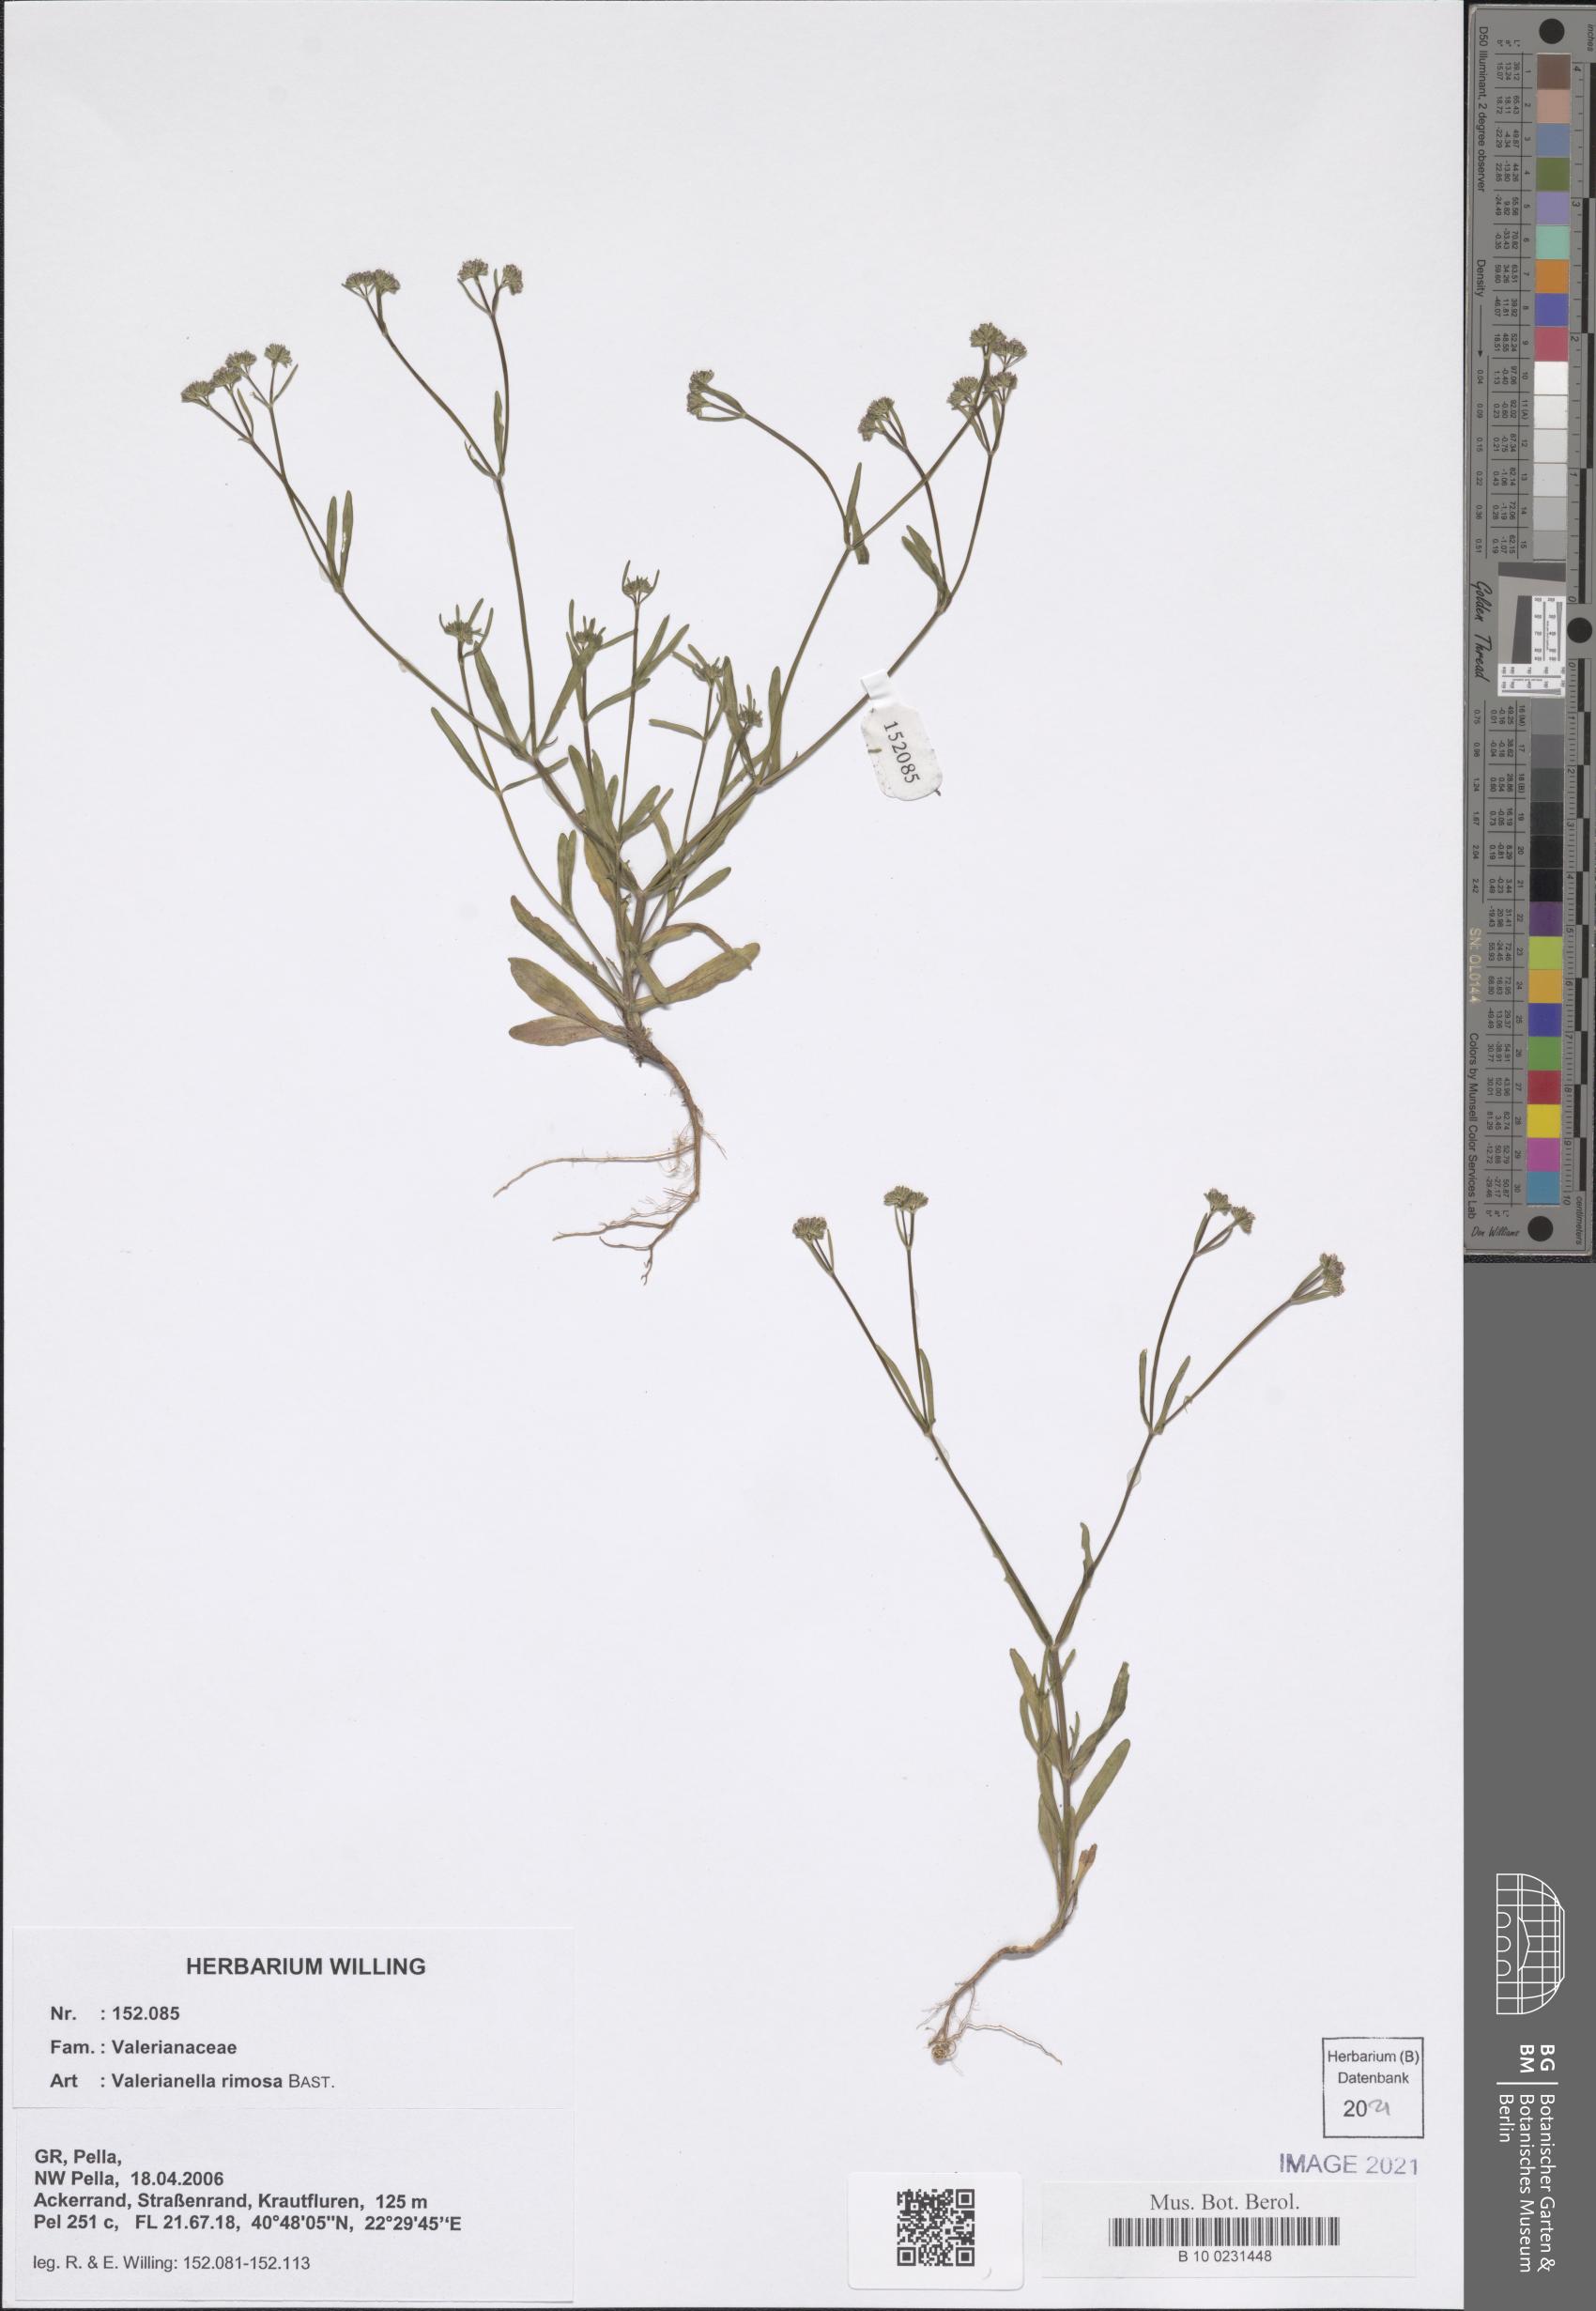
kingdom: Plantae
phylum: Tracheophyta
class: Magnoliopsida
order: Dipsacales
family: Caprifoliaceae
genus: Valerianella
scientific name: Valerianella rimosa
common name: Broad-fruited cornsalad
